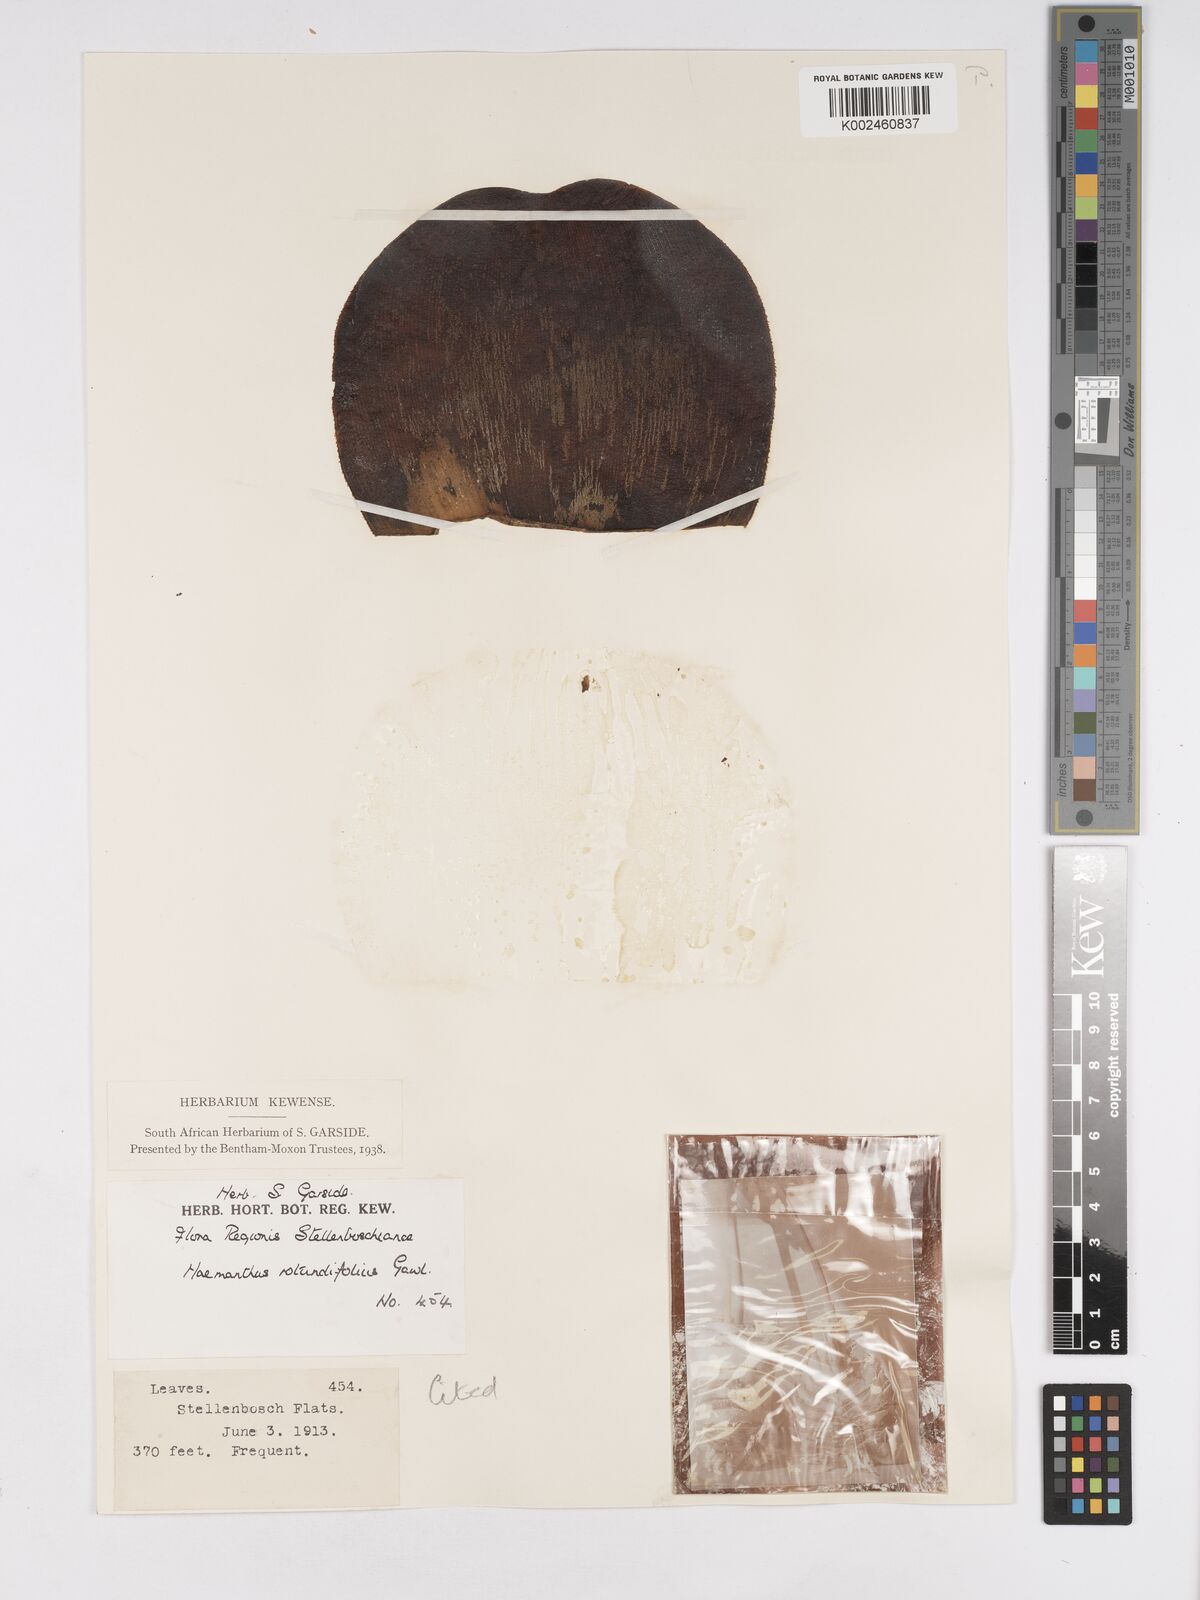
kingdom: Plantae
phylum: Tracheophyta
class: Liliopsida
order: Asparagales
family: Amaryllidaceae
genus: Haemanthus
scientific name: Haemanthus sanguineus
